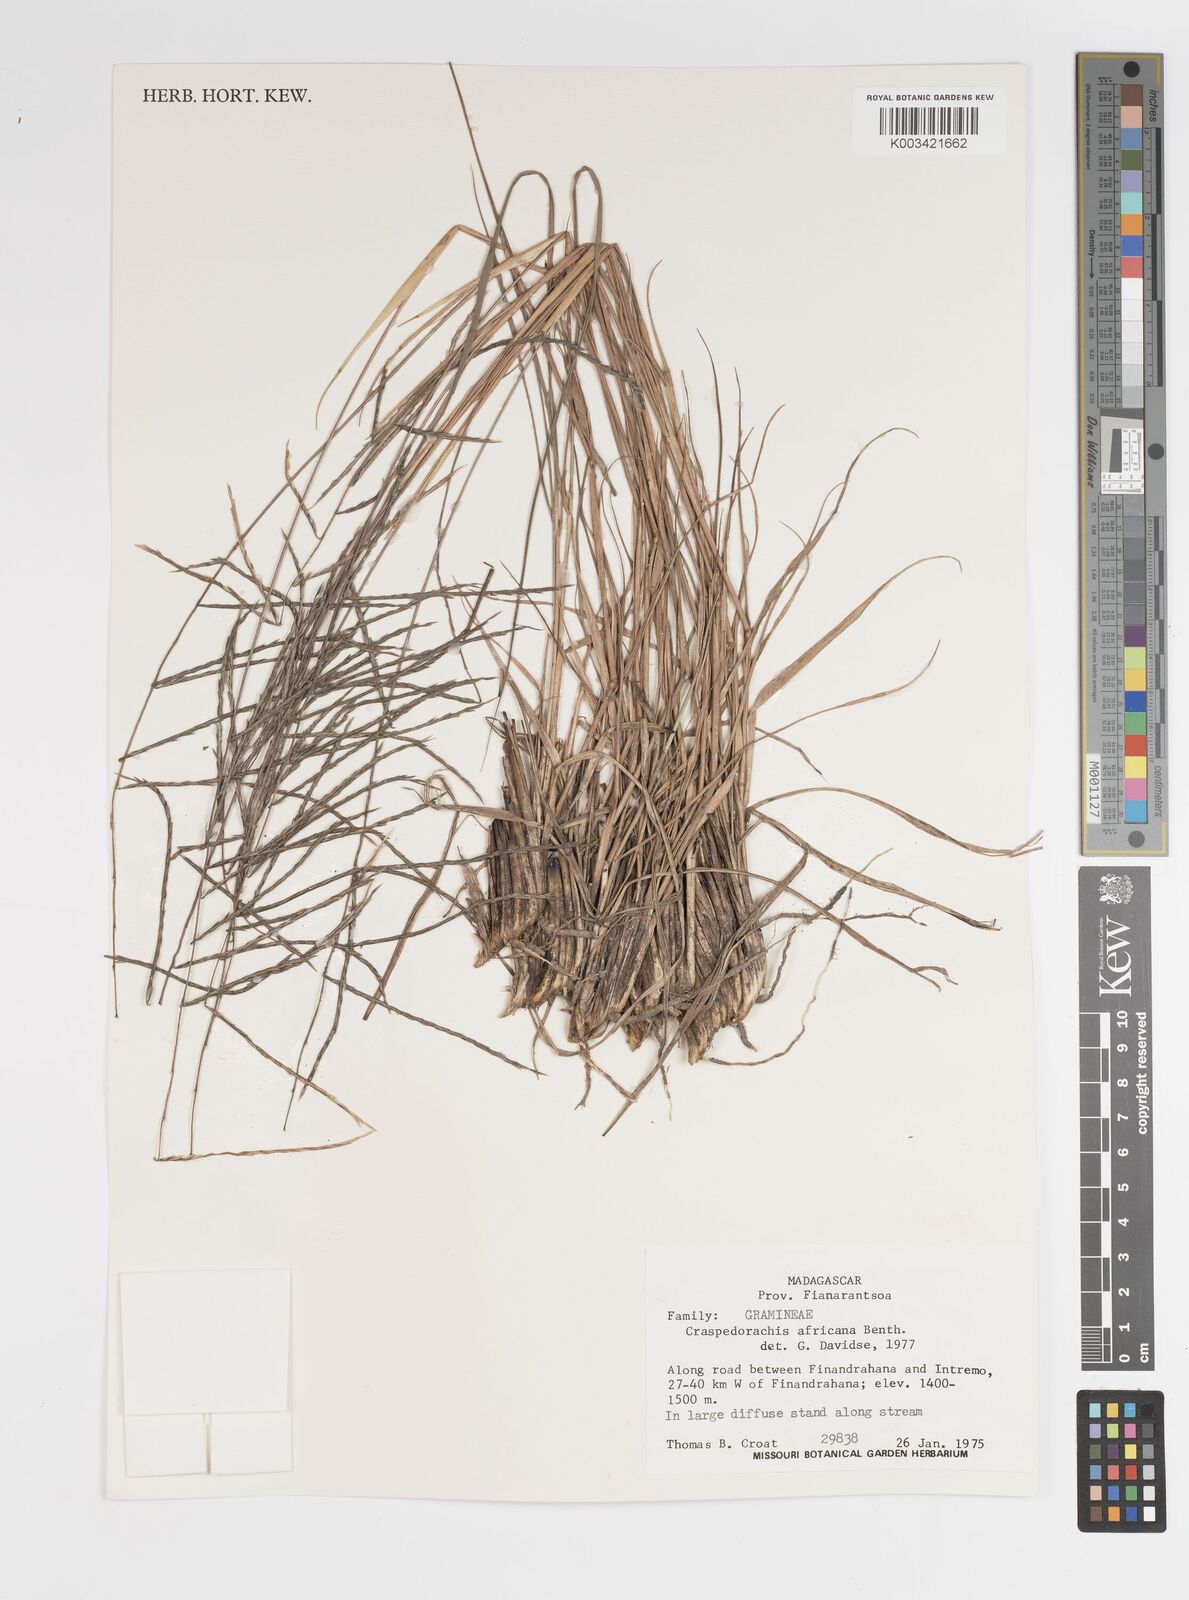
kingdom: Plantae
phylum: Tracheophyta
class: Liliopsida
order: Poales
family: Poaceae
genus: Craspedorhachis
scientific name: Craspedorhachis africana
